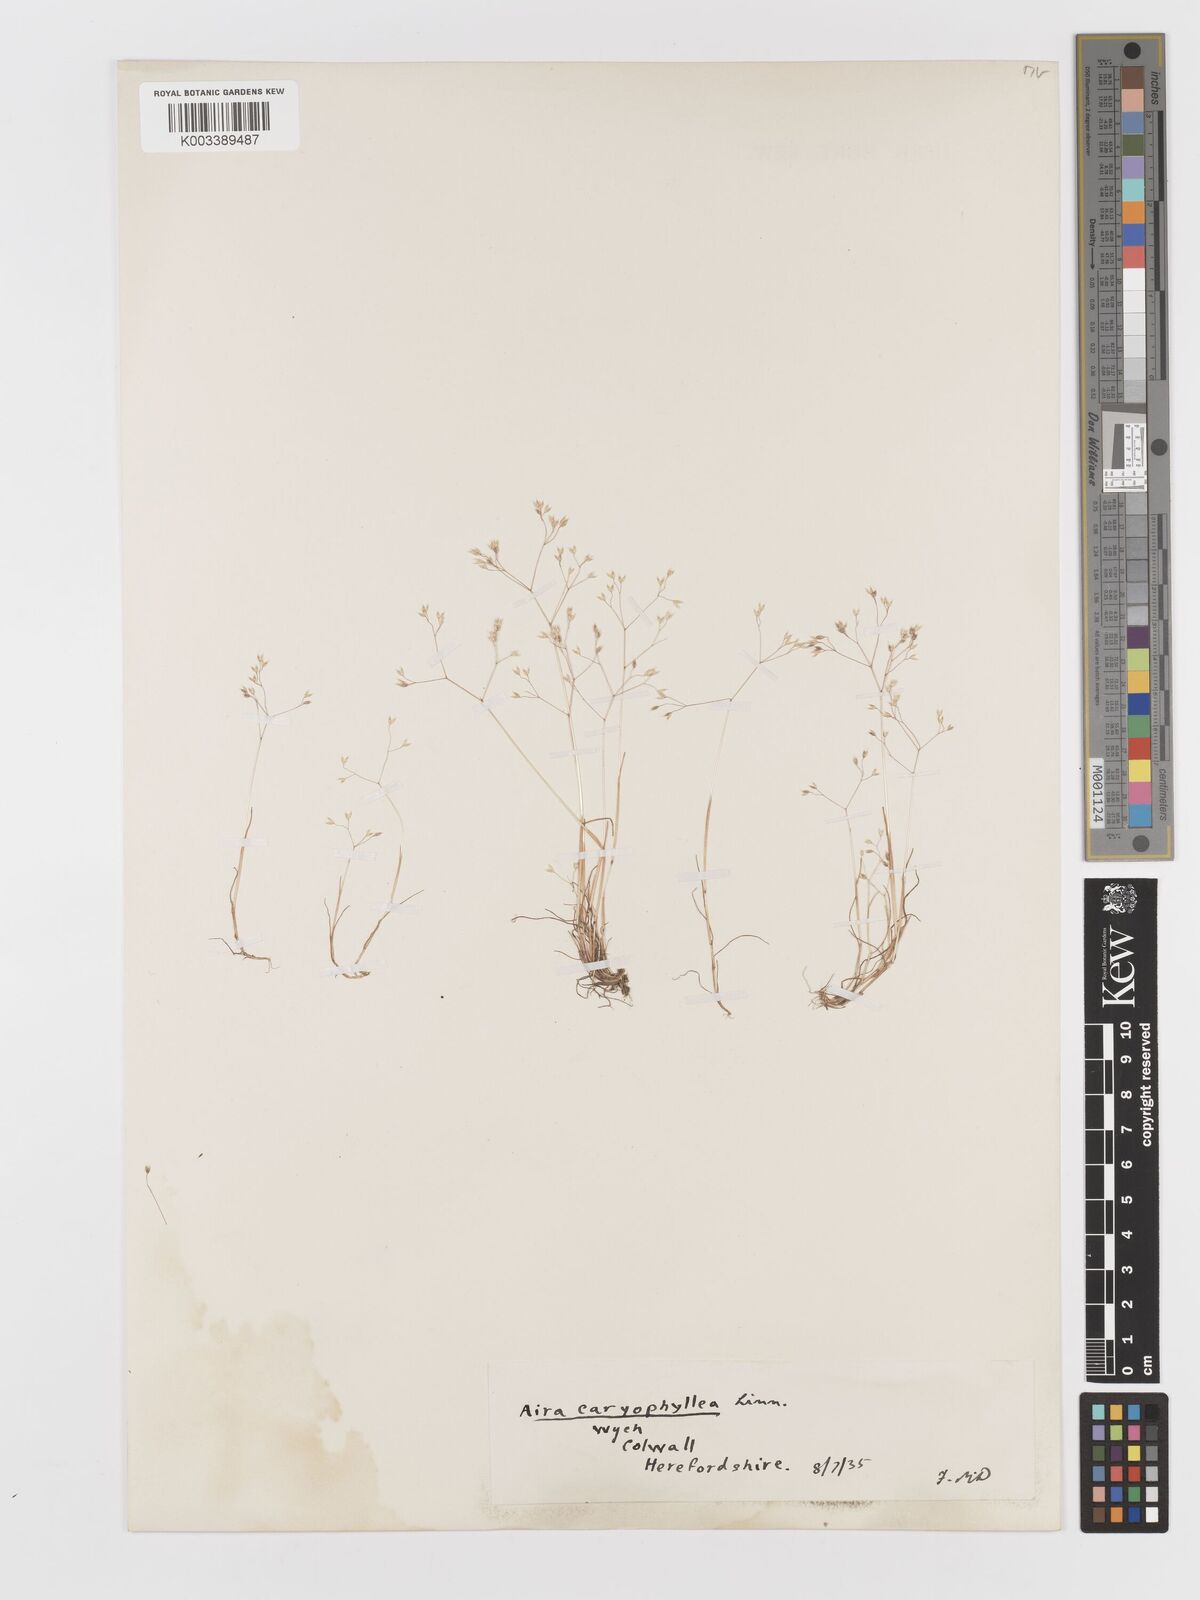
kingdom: Plantae
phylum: Tracheophyta
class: Liliopsida
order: Poales
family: Poaceae
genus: Aira
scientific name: Aira caryophyllea
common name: Silver hairgrass
